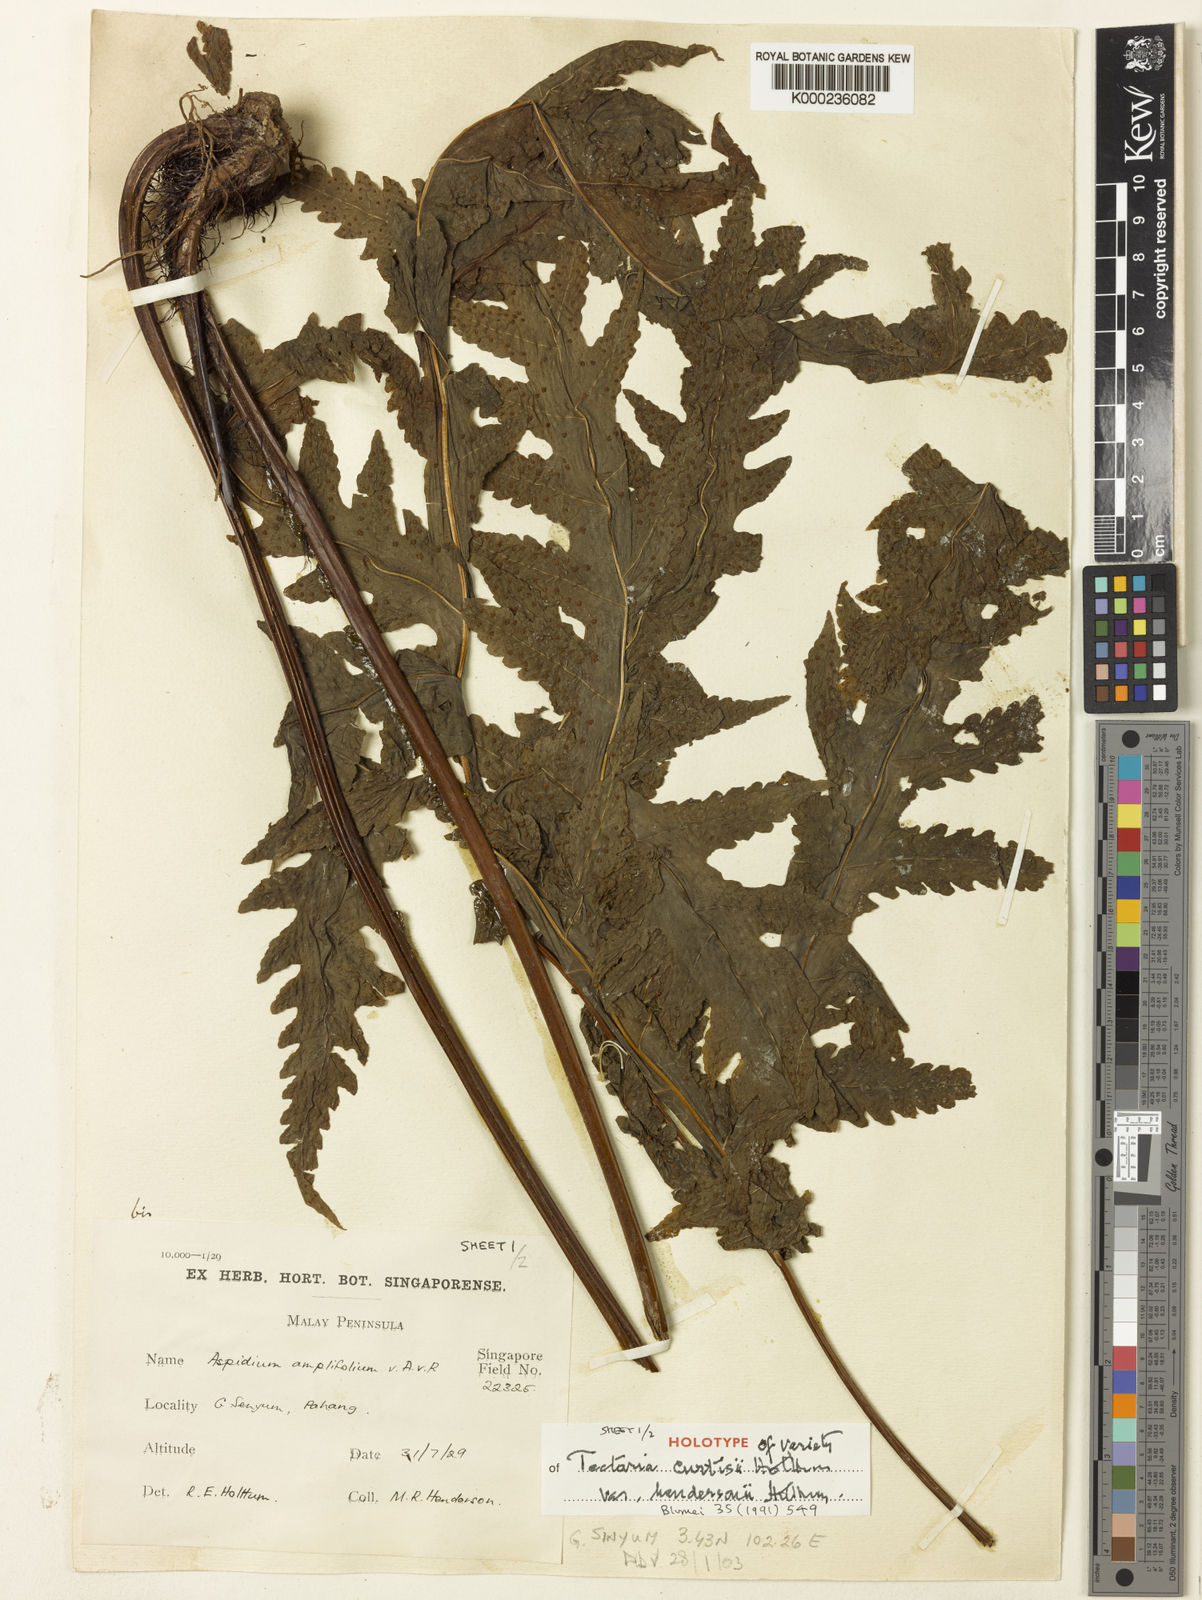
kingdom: Plantae
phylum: Tracheophyta
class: Polypodiopsida
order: Polypodiales
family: Tectariaceae
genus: Tectaria
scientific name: Tectaria curtisii
